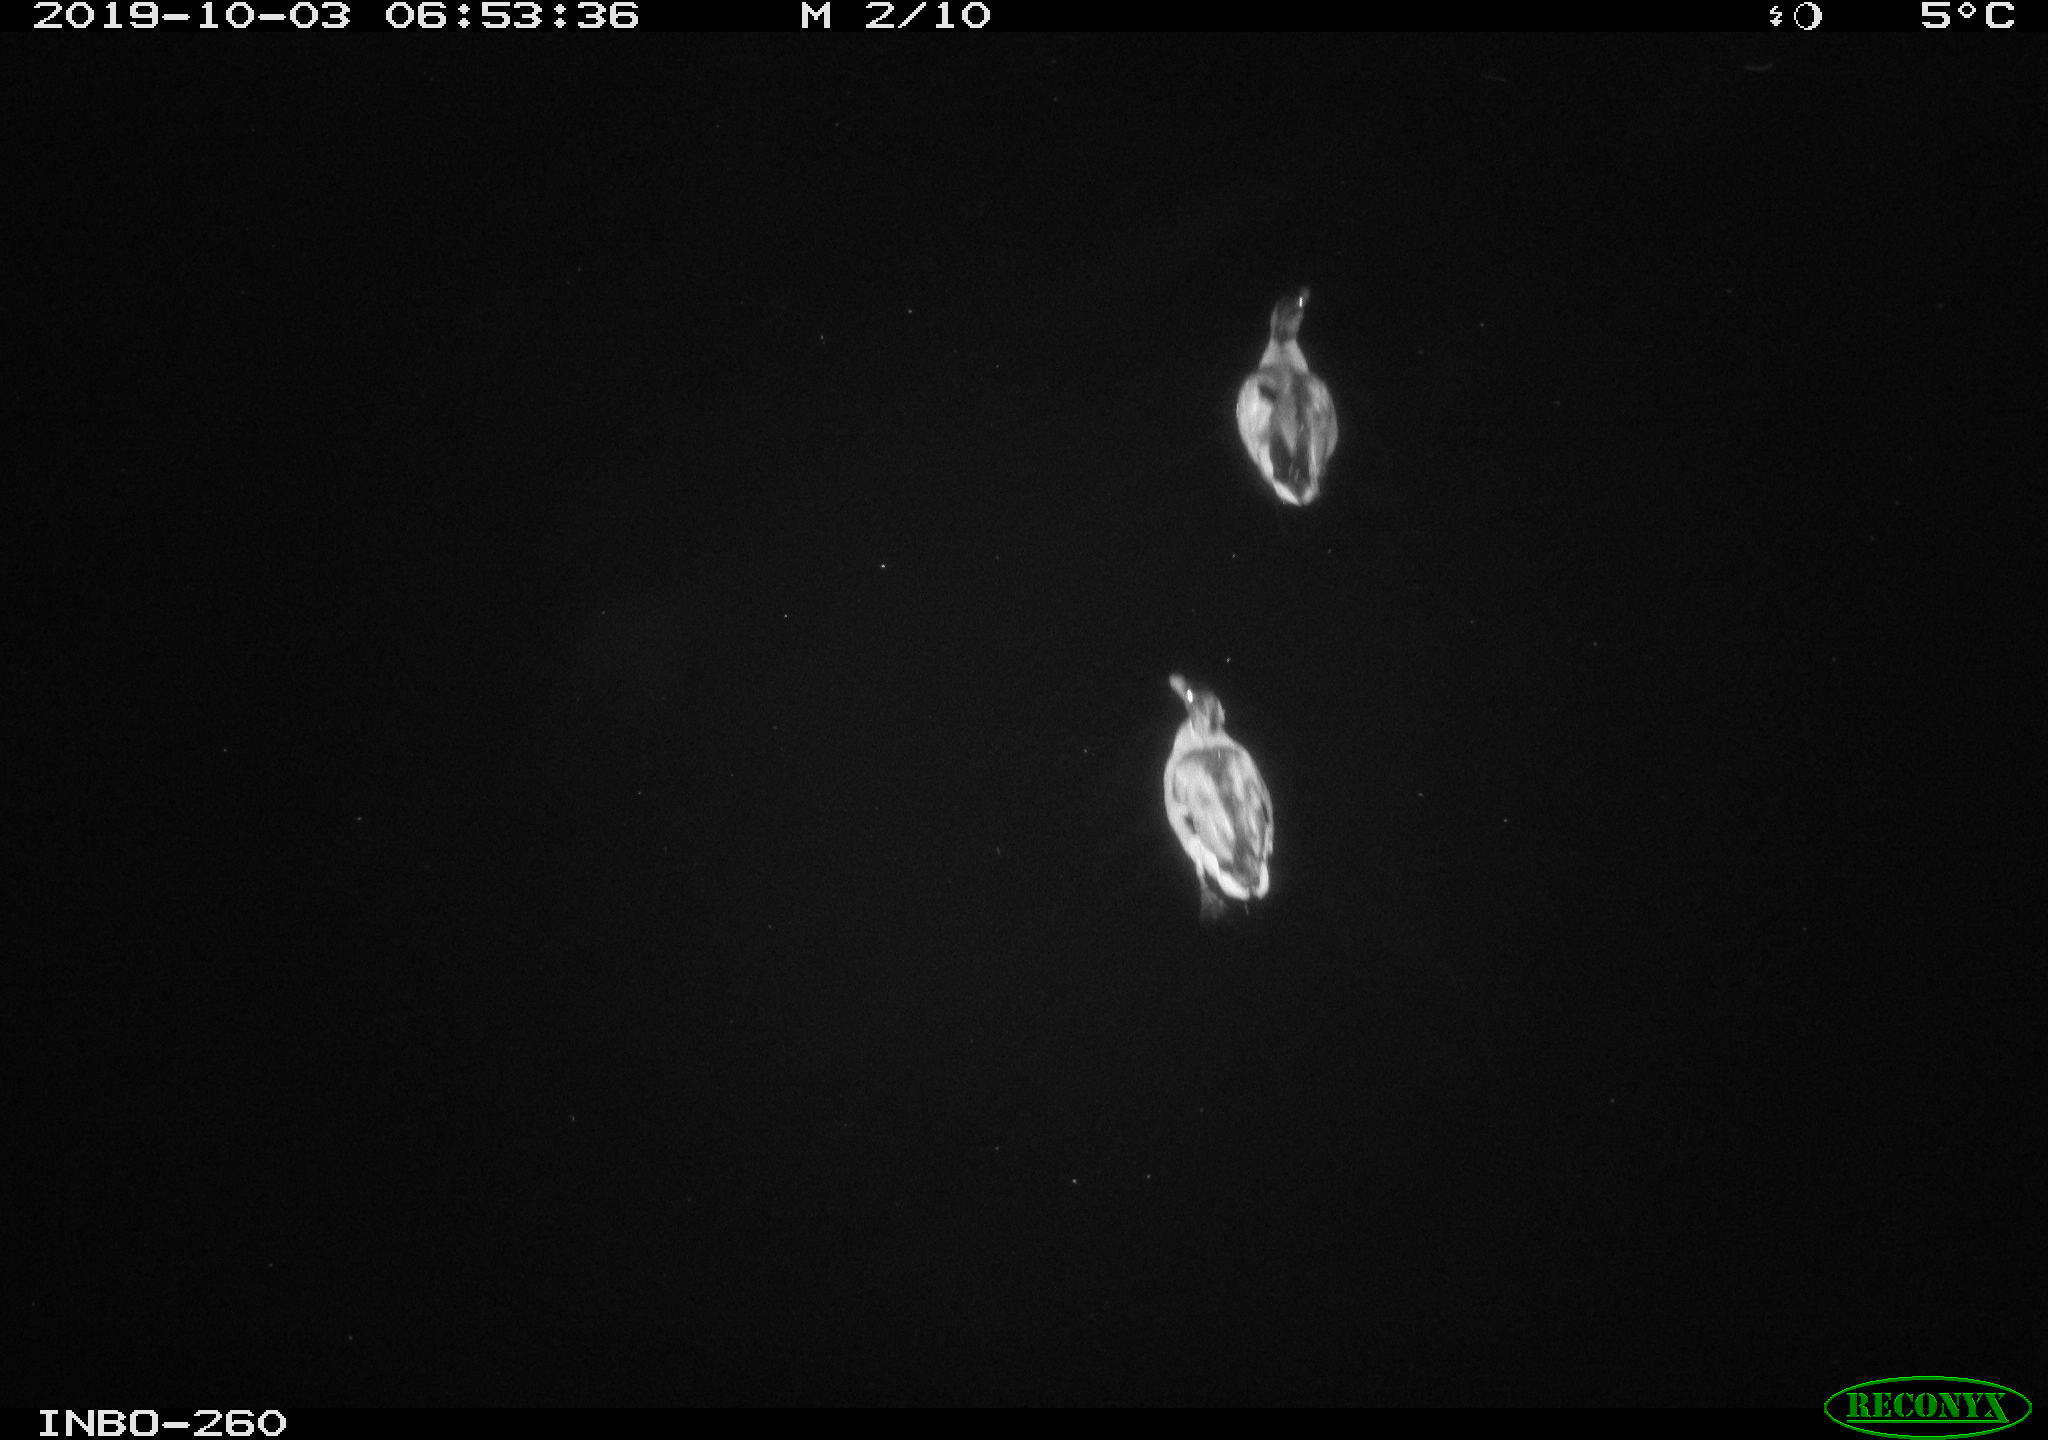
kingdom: Animalia
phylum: Chordata
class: Aves
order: Anseriformes
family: Anatidae
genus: Anas
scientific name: Anas platyrhynchos
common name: Mallard
